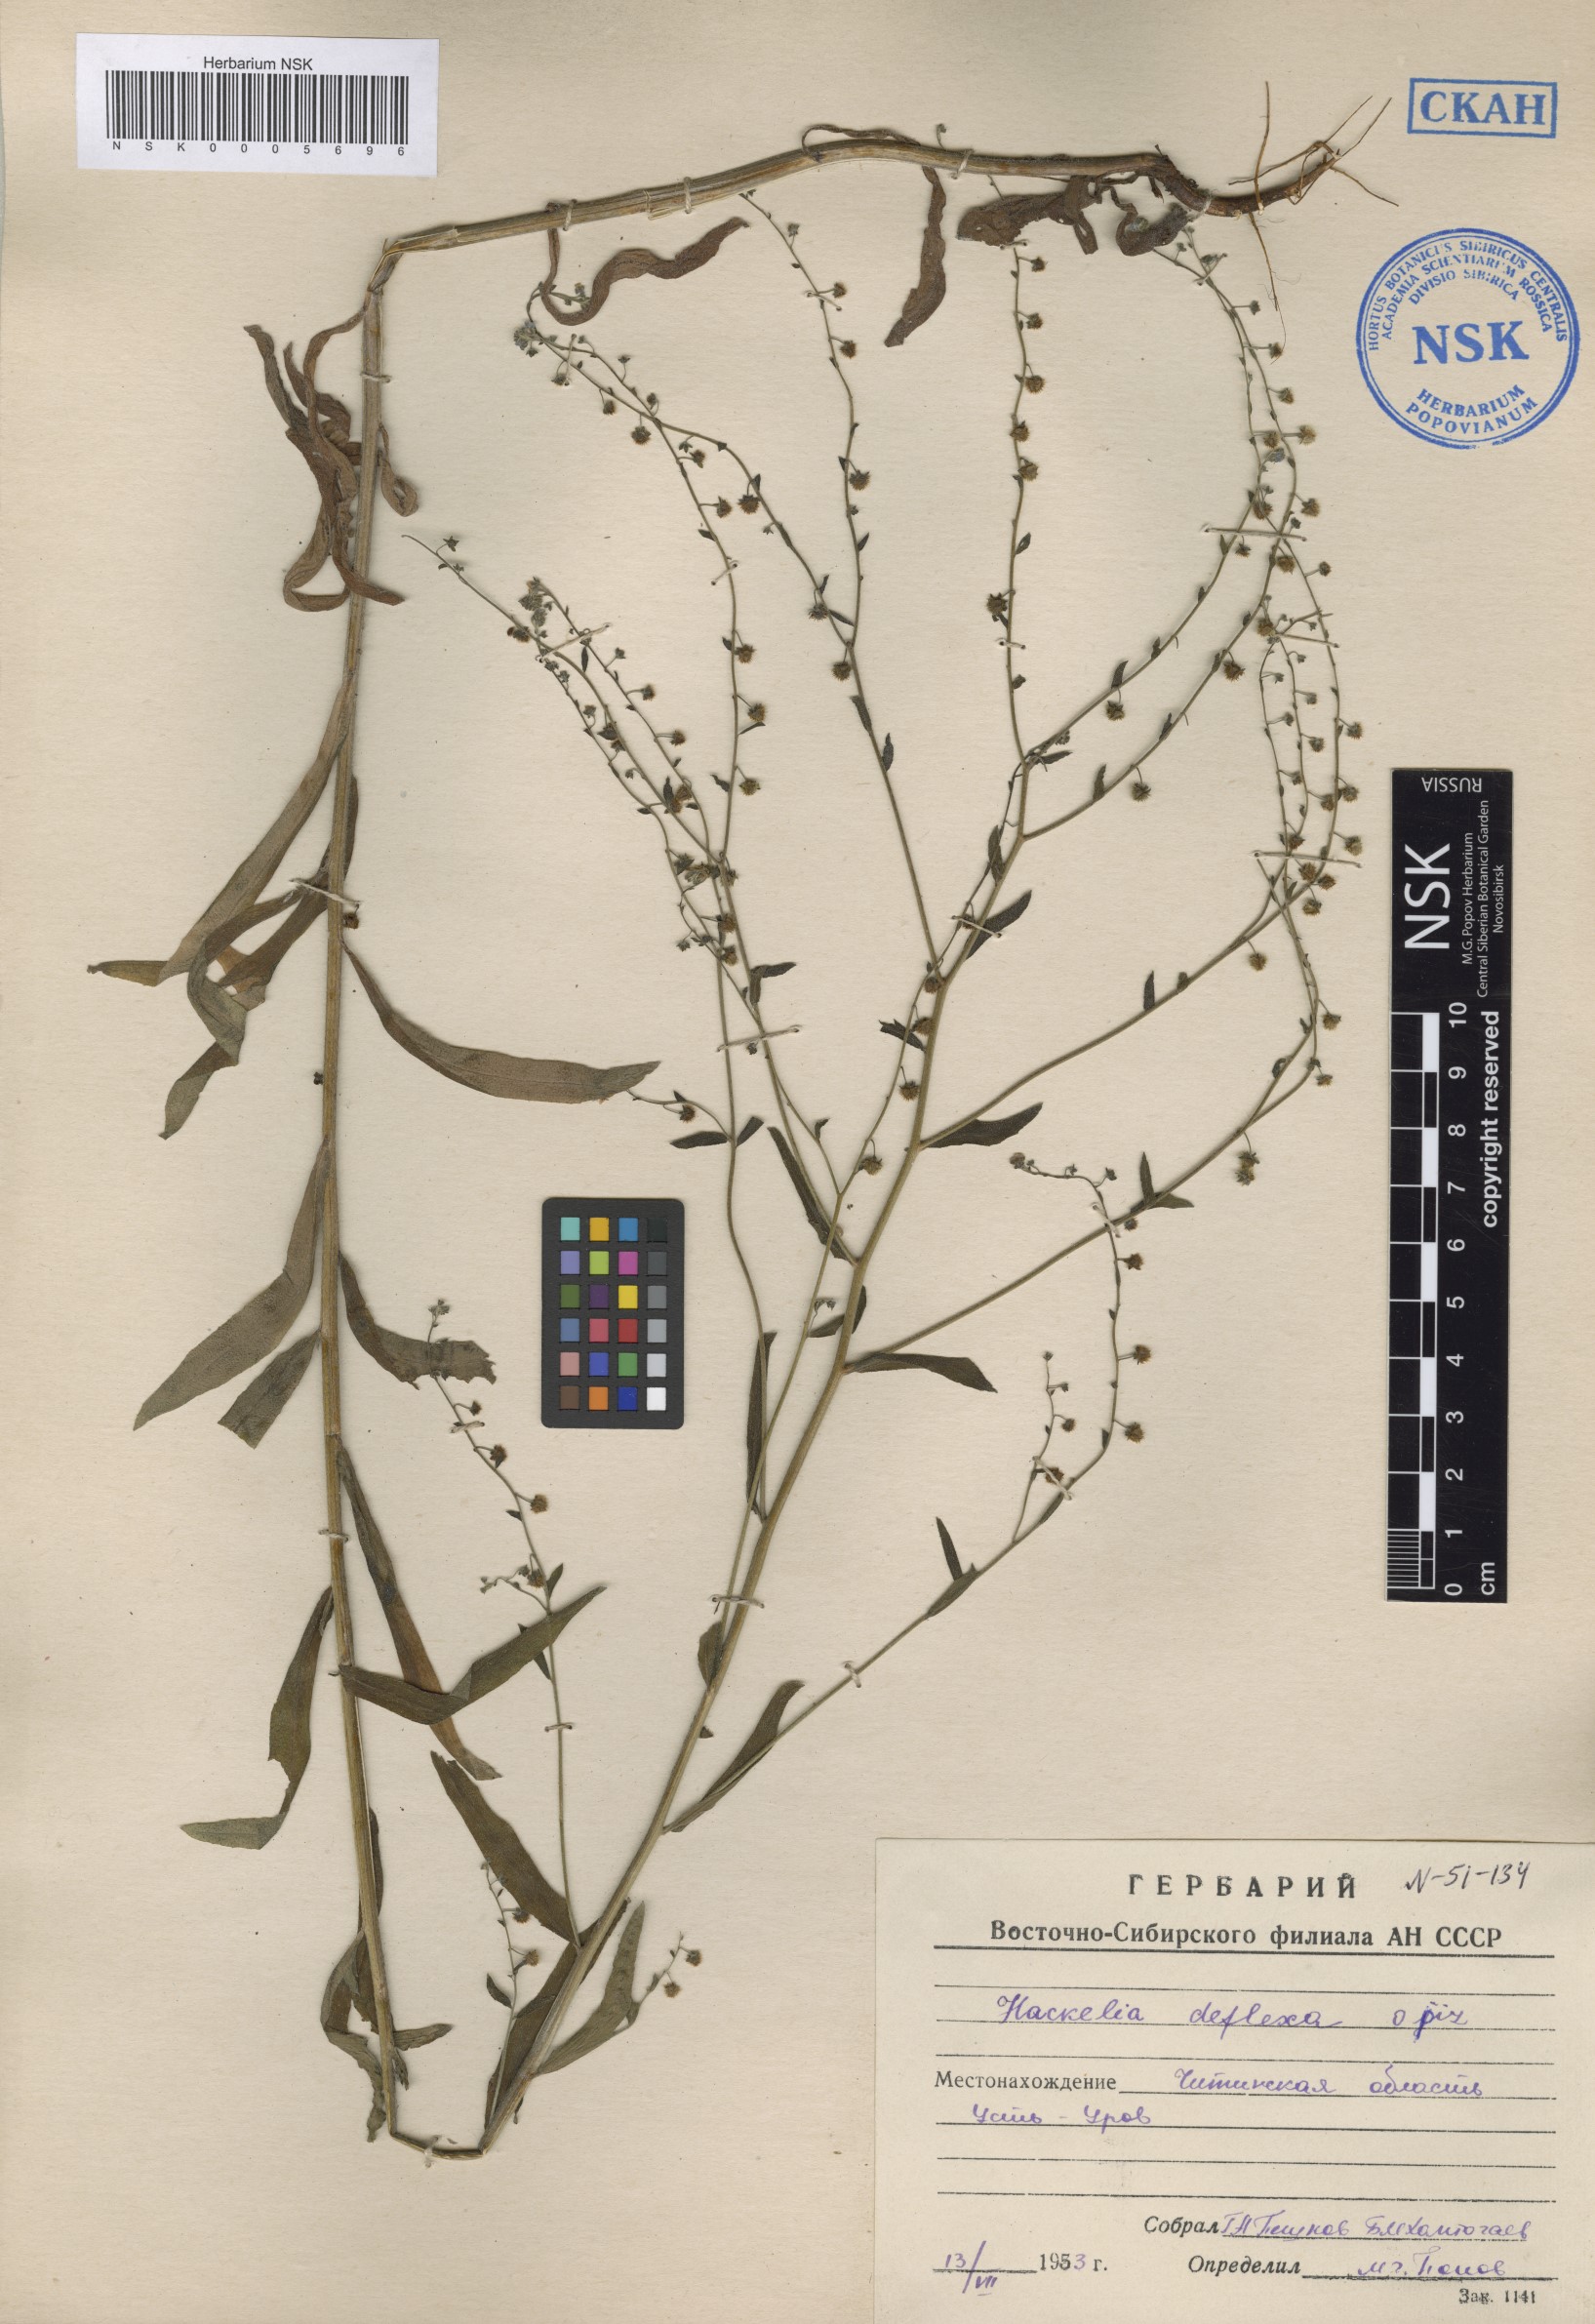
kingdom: Plantae
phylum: Tracheophyta
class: Magnoliopsida
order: Boraginales
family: Boraginaceae
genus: Hackelia
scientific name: Hackelia deflexa
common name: Nodding stickseed
